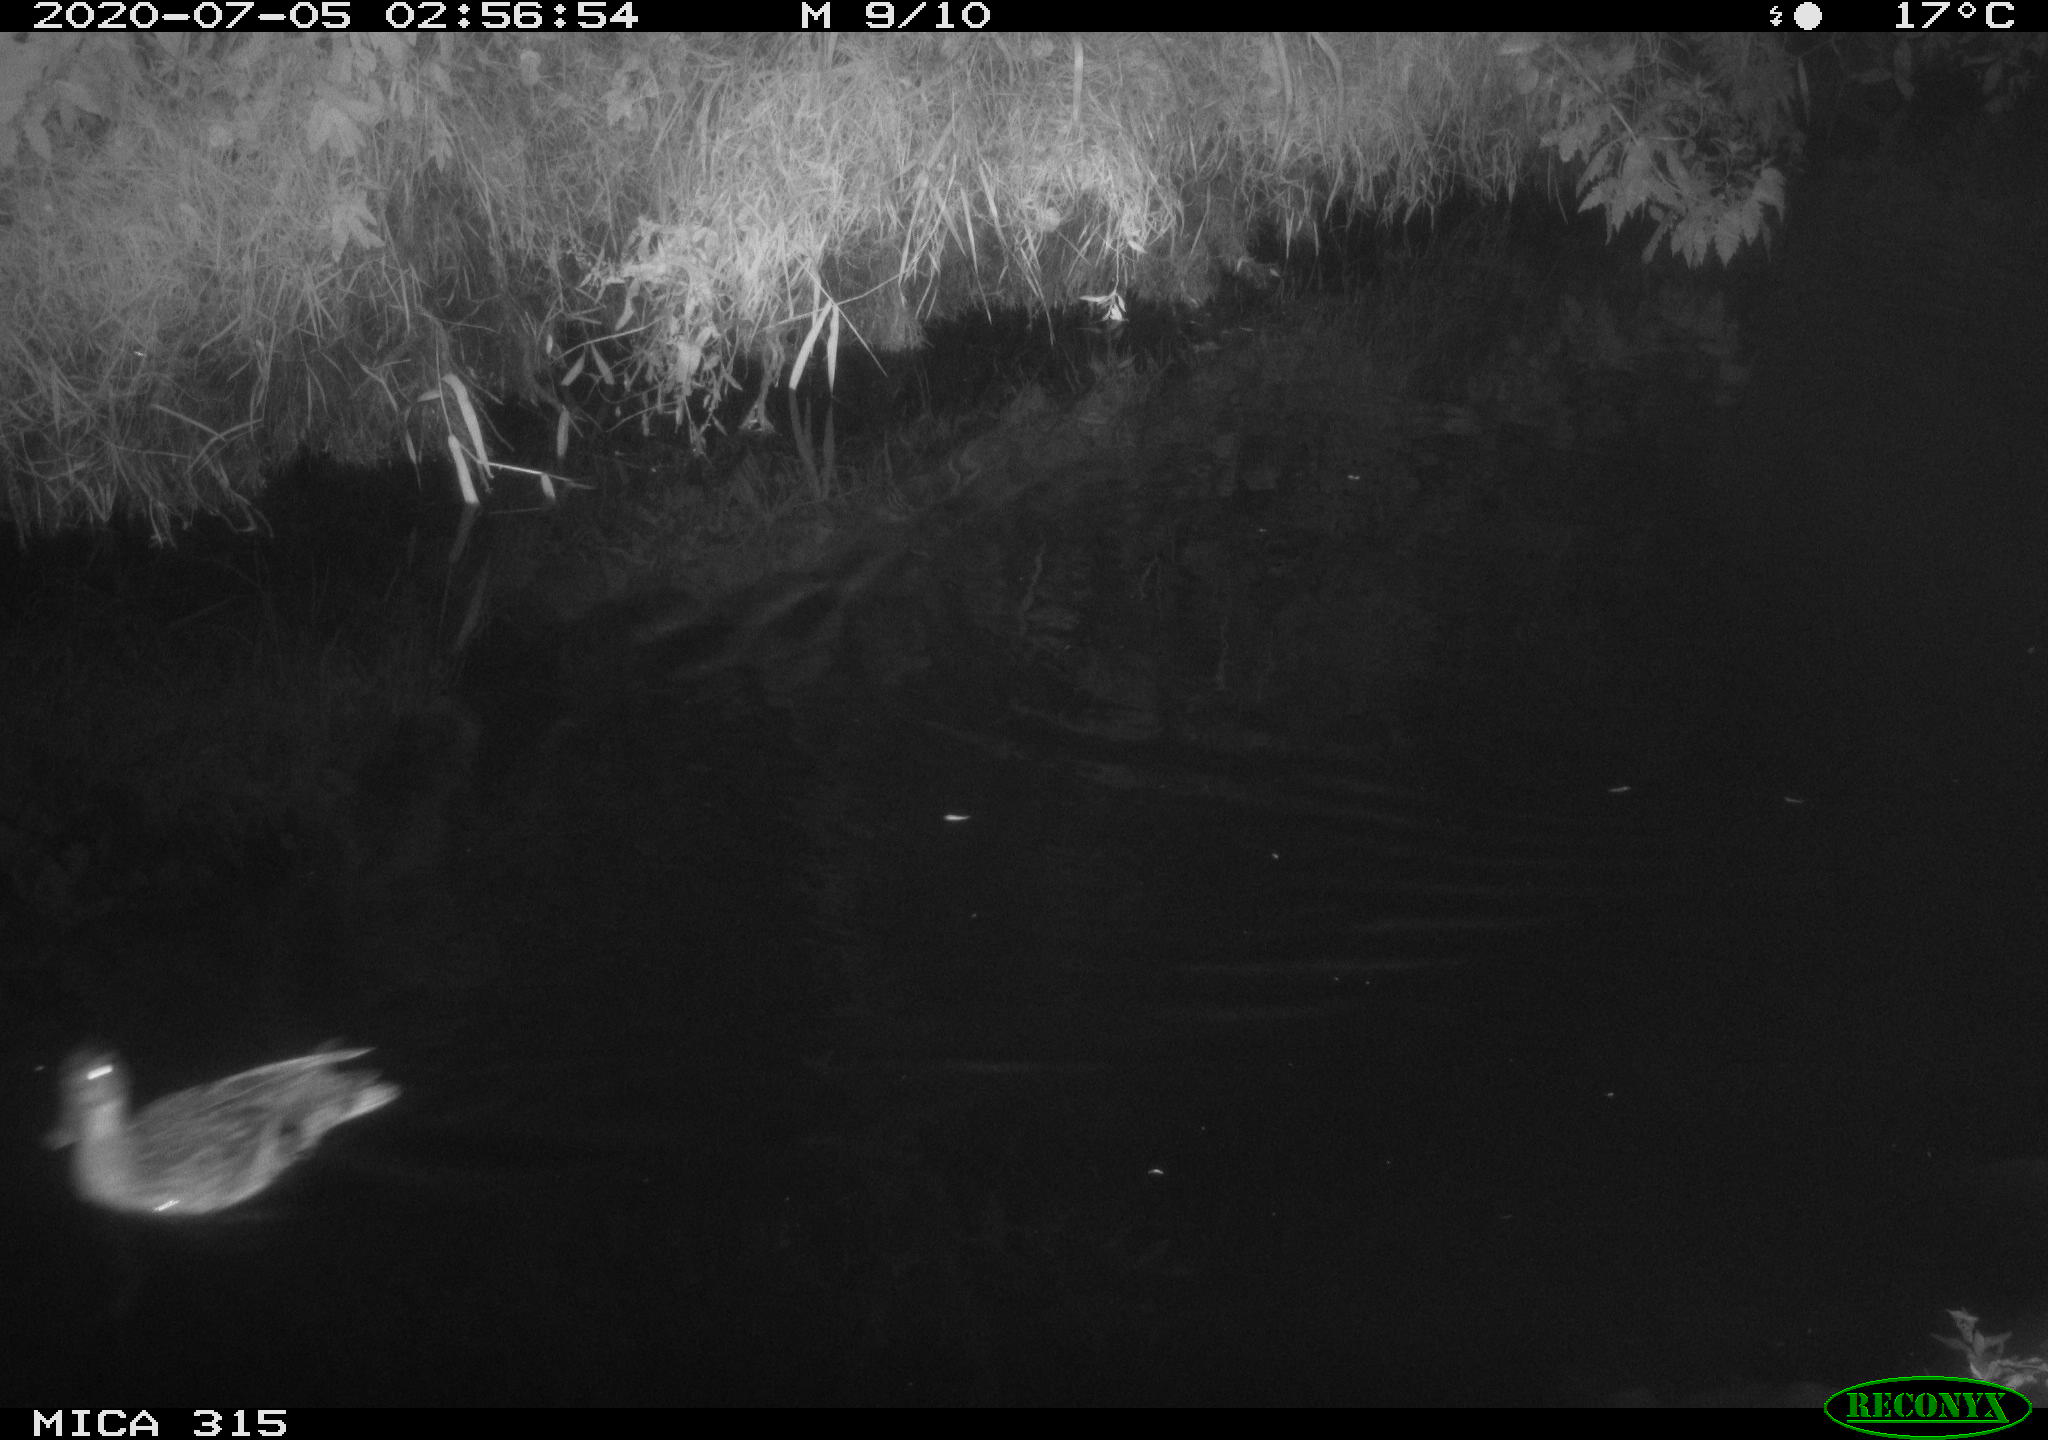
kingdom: Animalia
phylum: Chordata
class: Aves
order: Anseriformes
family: Anatidae
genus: Anas
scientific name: Anas platyrhynchos
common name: Mallard
